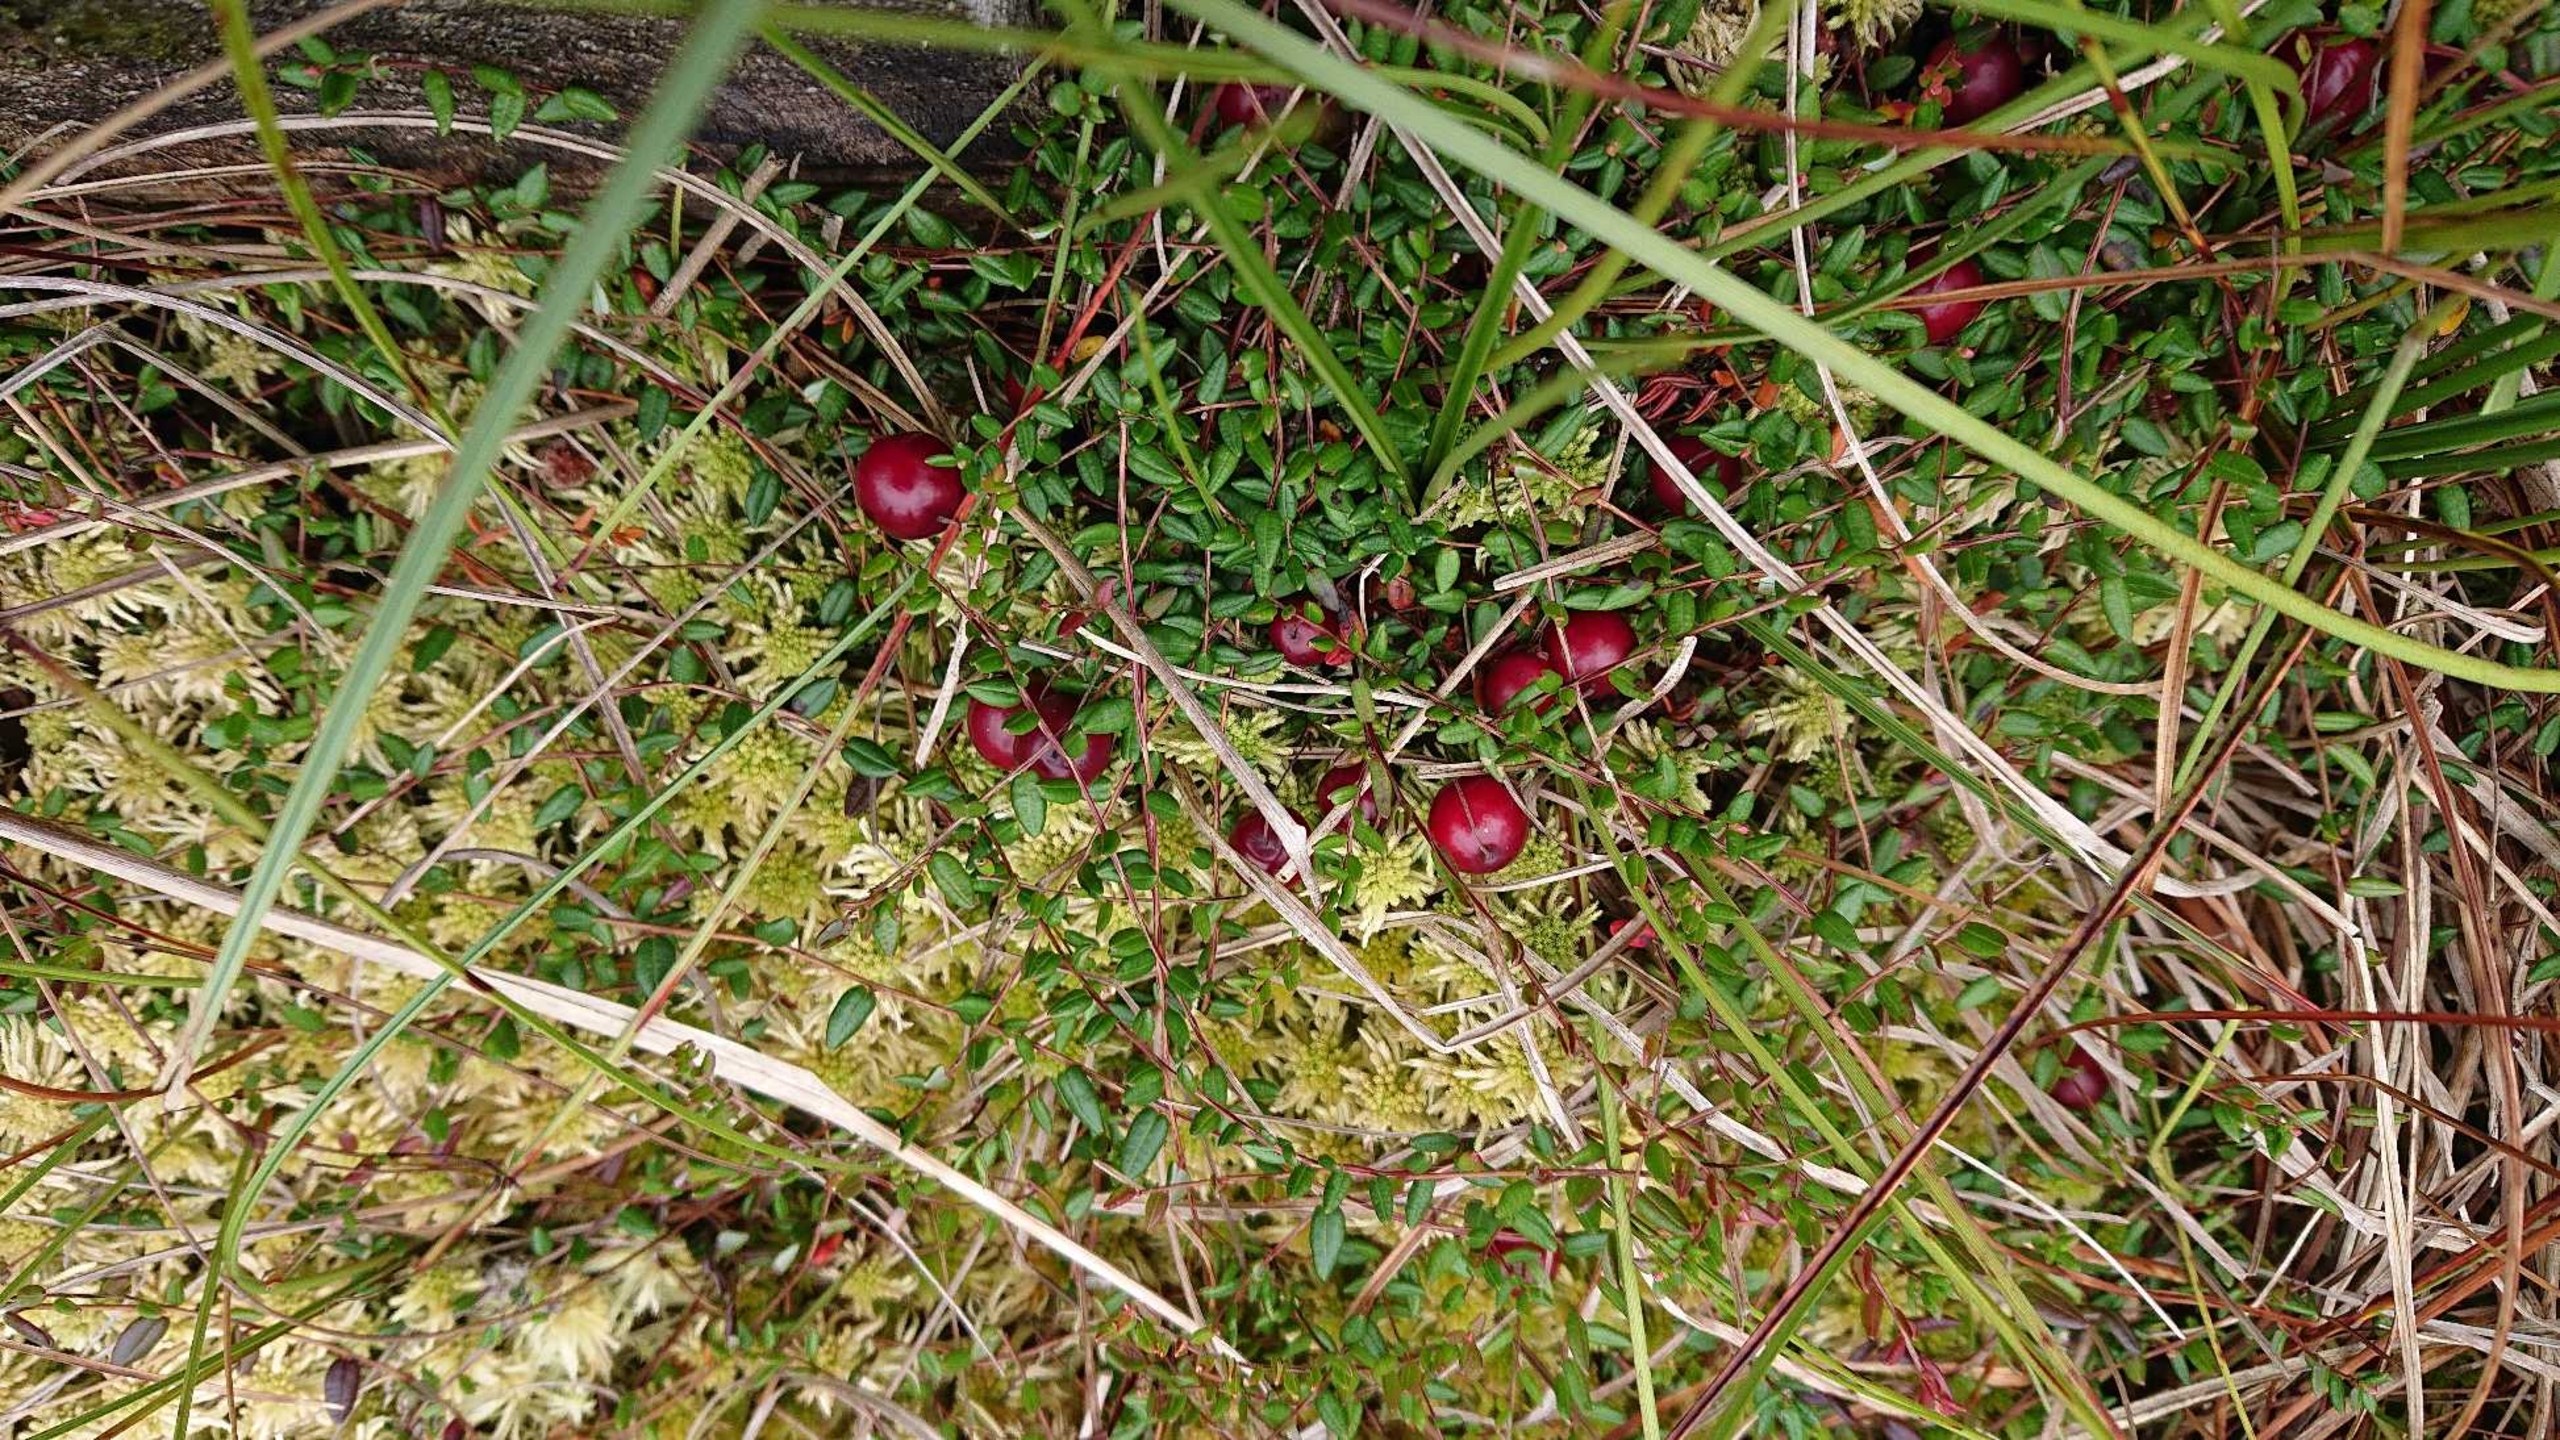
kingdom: Plantae
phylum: Tracheophyta
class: Magnoliopsida
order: Ericales
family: Ericaceae
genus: Vaccinium
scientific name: Vaccinium oxycoccos
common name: Tranebær
